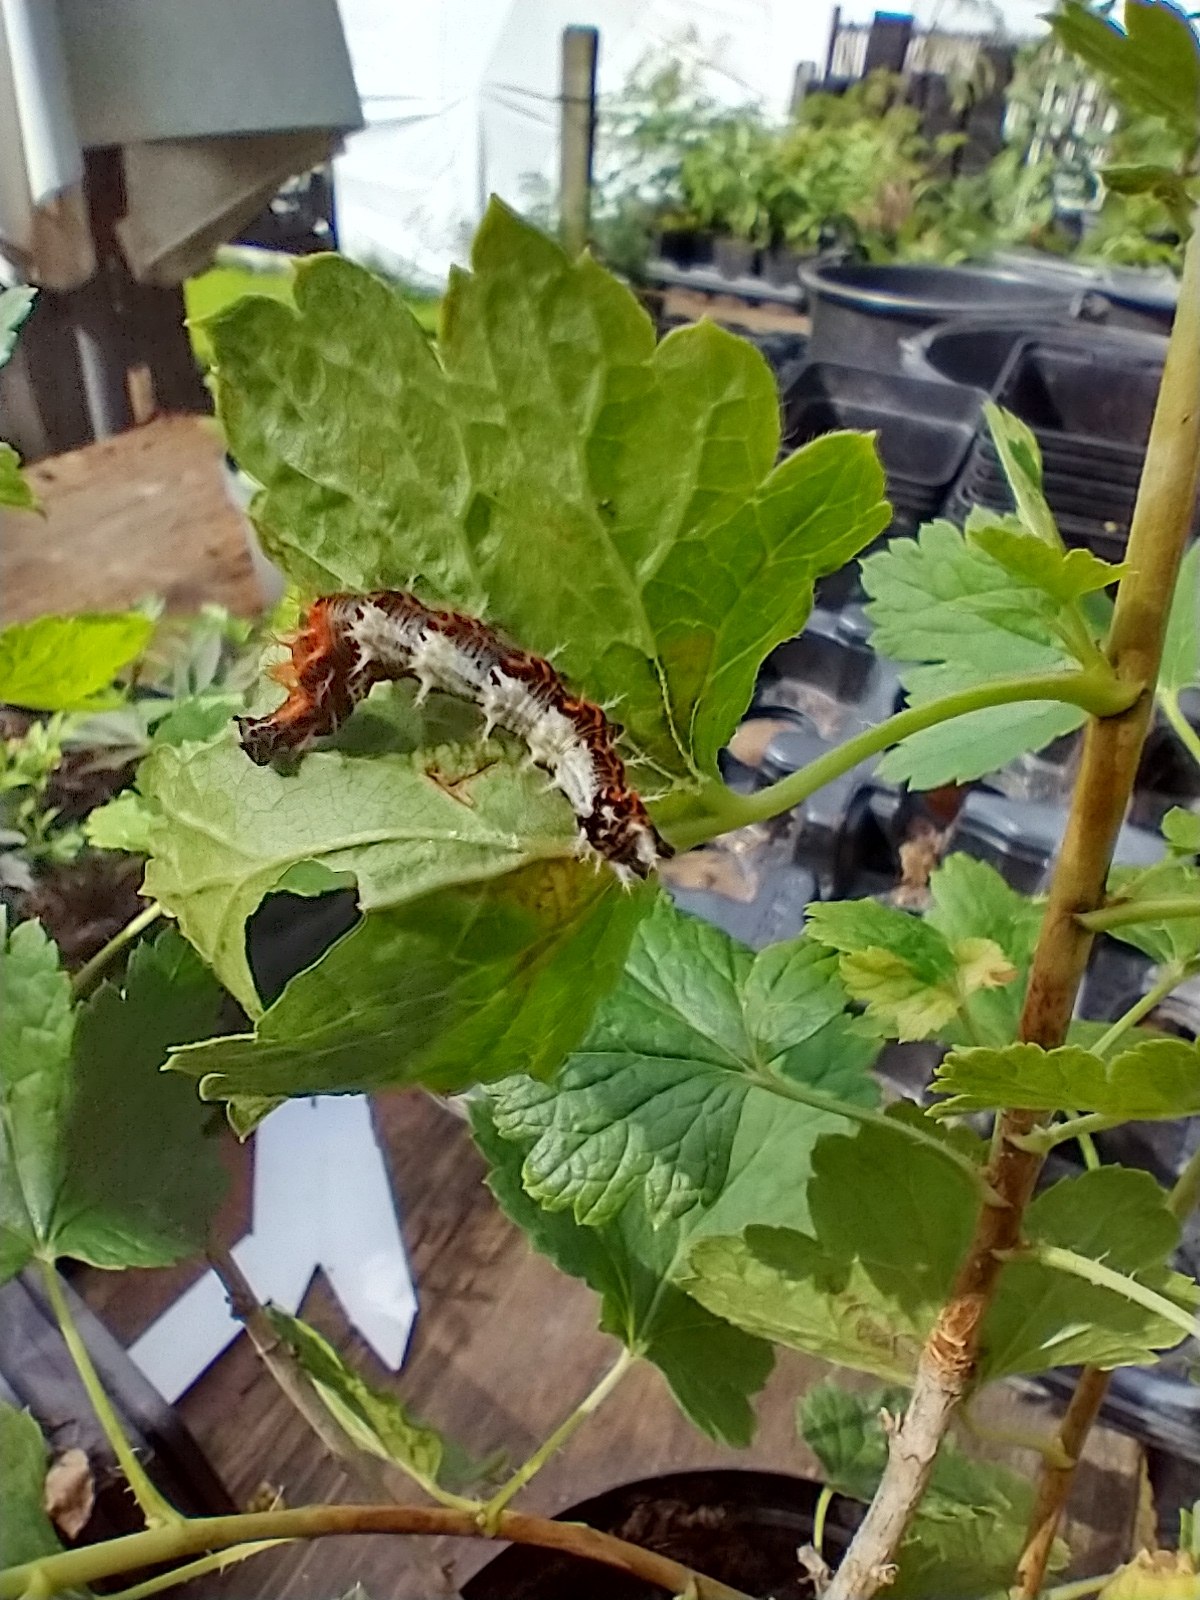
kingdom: Animalia
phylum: Arthropoda
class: Insecta
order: Lepidoptera
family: Nymphalidae
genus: Polygonia
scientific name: Polygonia c-album
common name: Det hvide C
